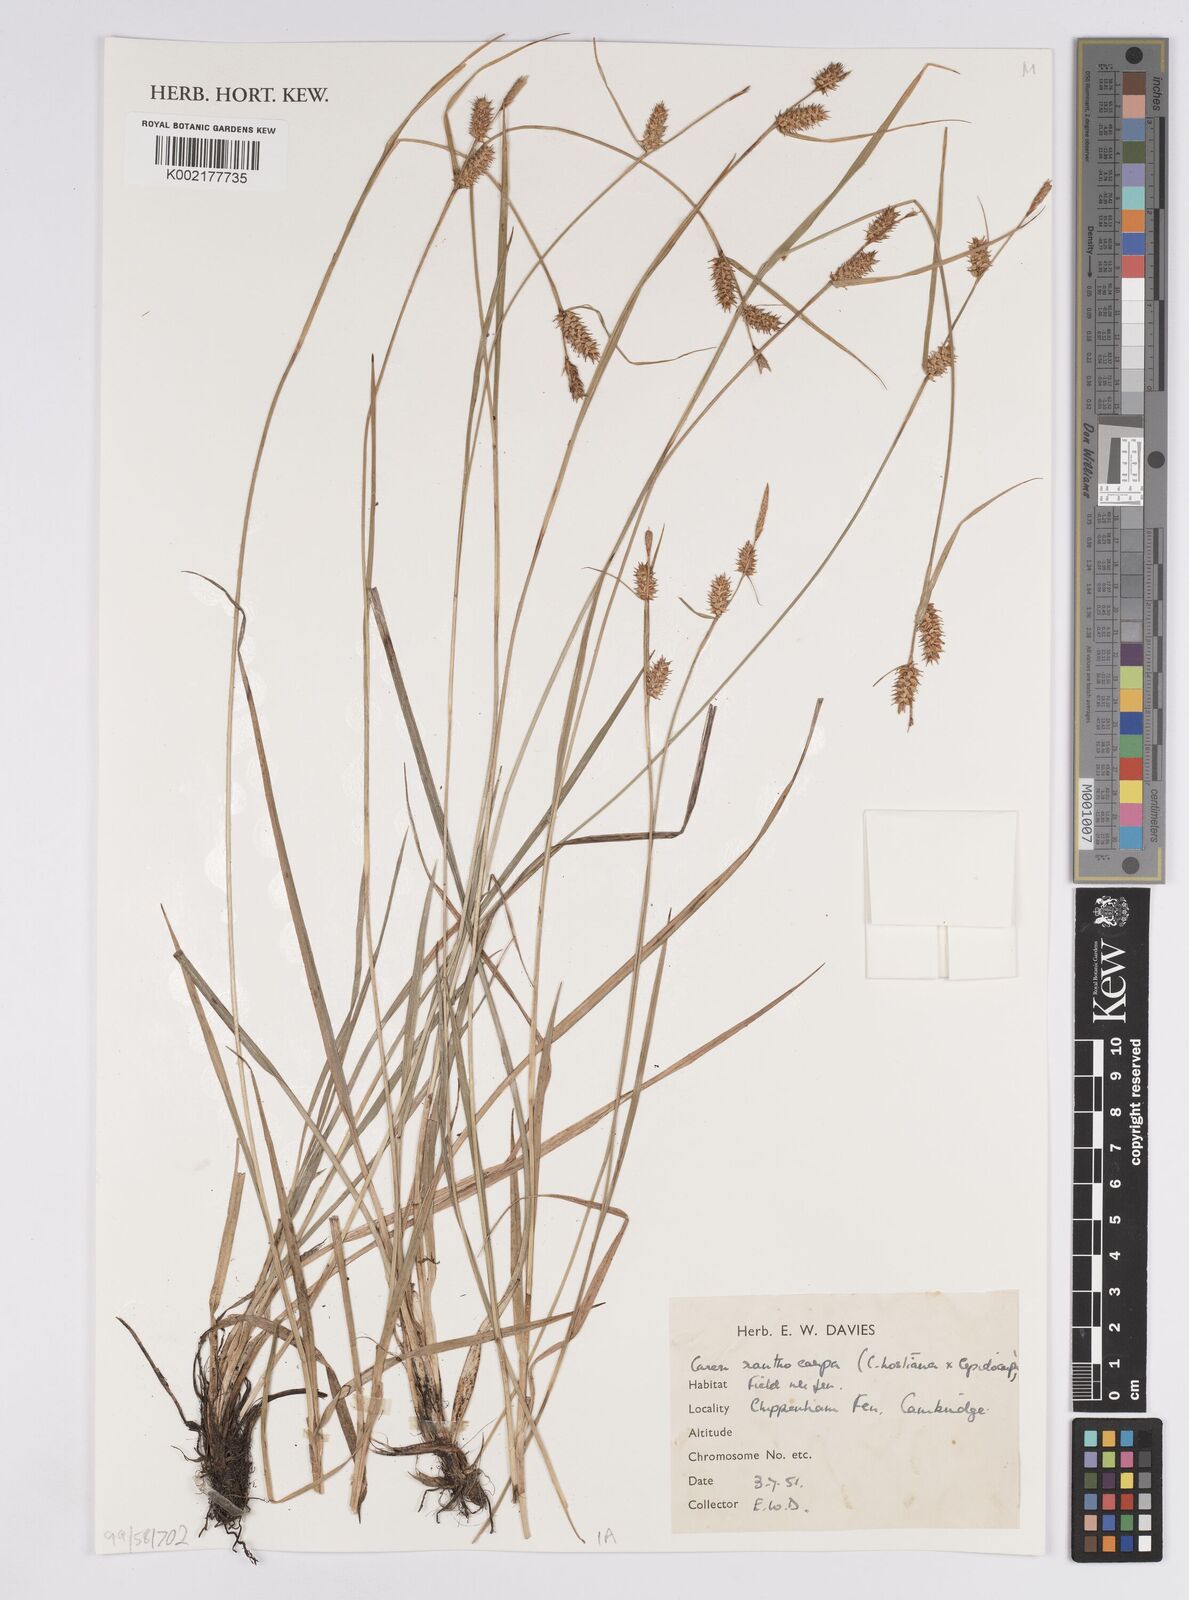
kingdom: Plantae
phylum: Tracheophyta
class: Liliopsida
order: Poales
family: Cyperaceae
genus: Carex
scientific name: Carex flava
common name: Large yellow-sedge
